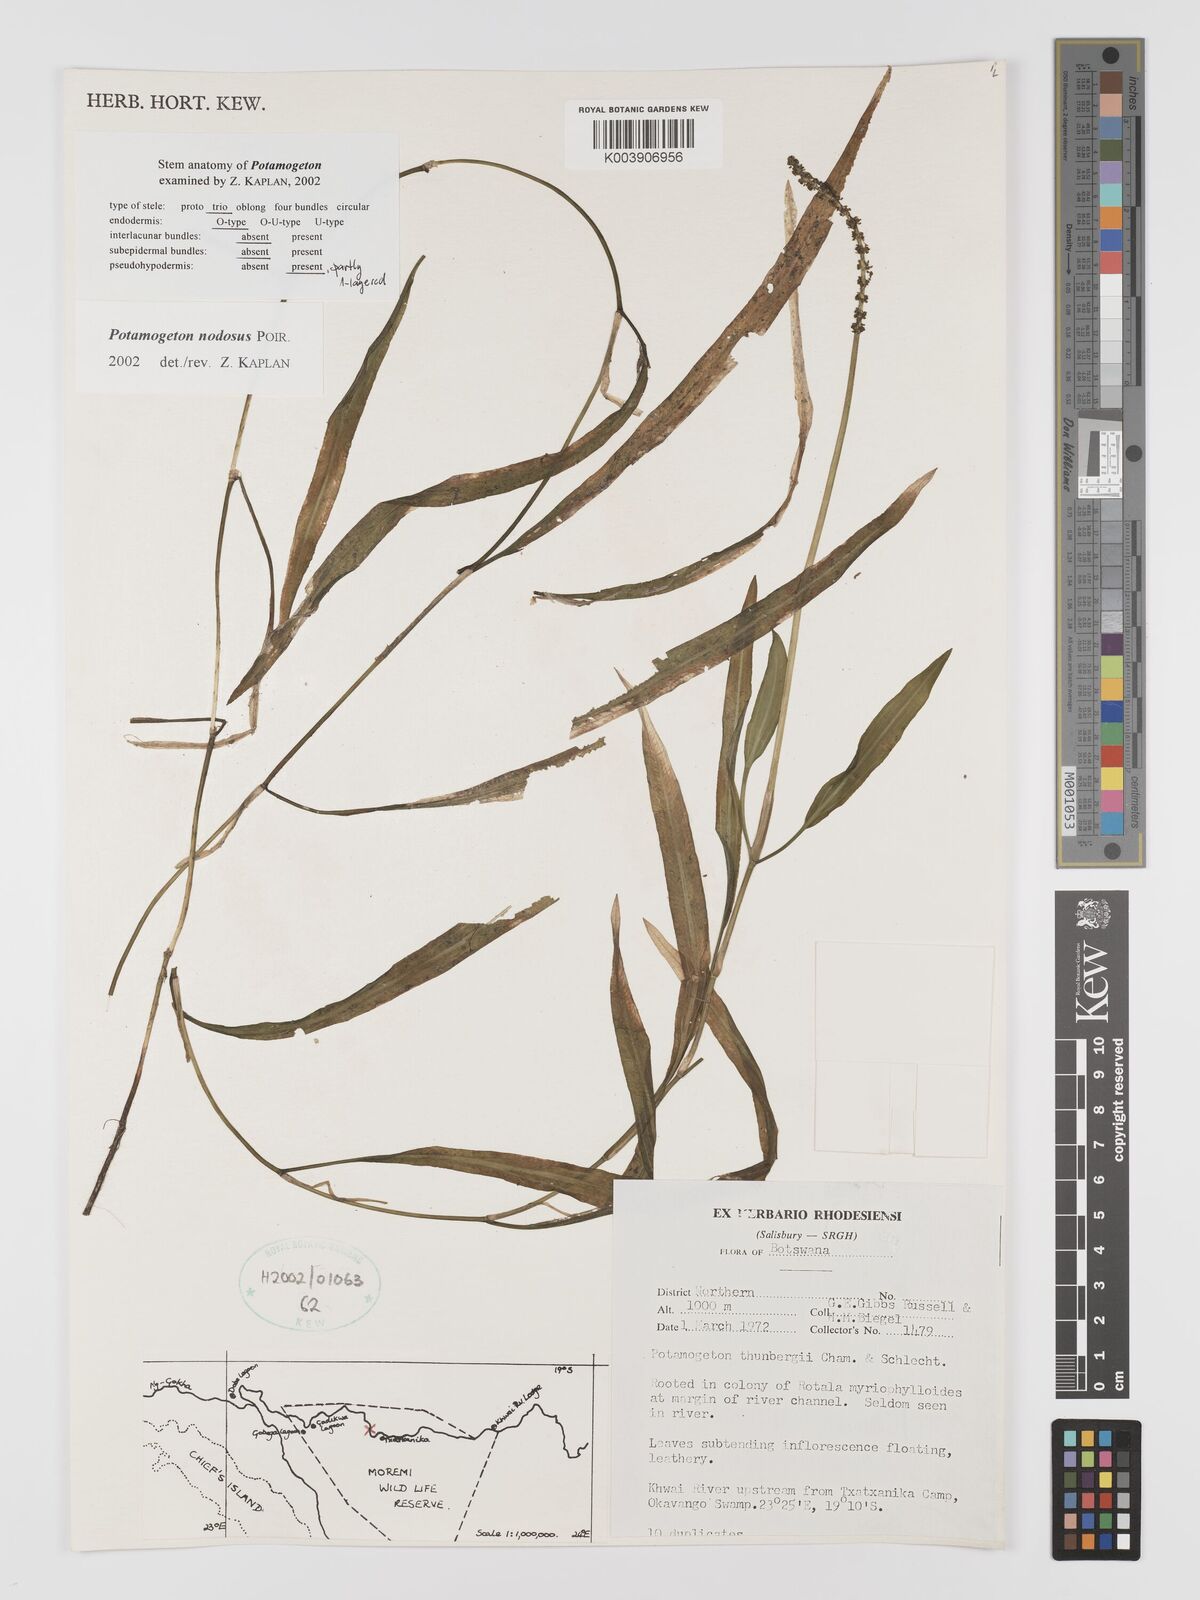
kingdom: Plantae
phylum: Tracheophyta
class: Liliopsida
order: Alismatales
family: Potamogetonaceae
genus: Potamogeton
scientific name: Potamogeton nodosus
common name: Loddon pondweed
